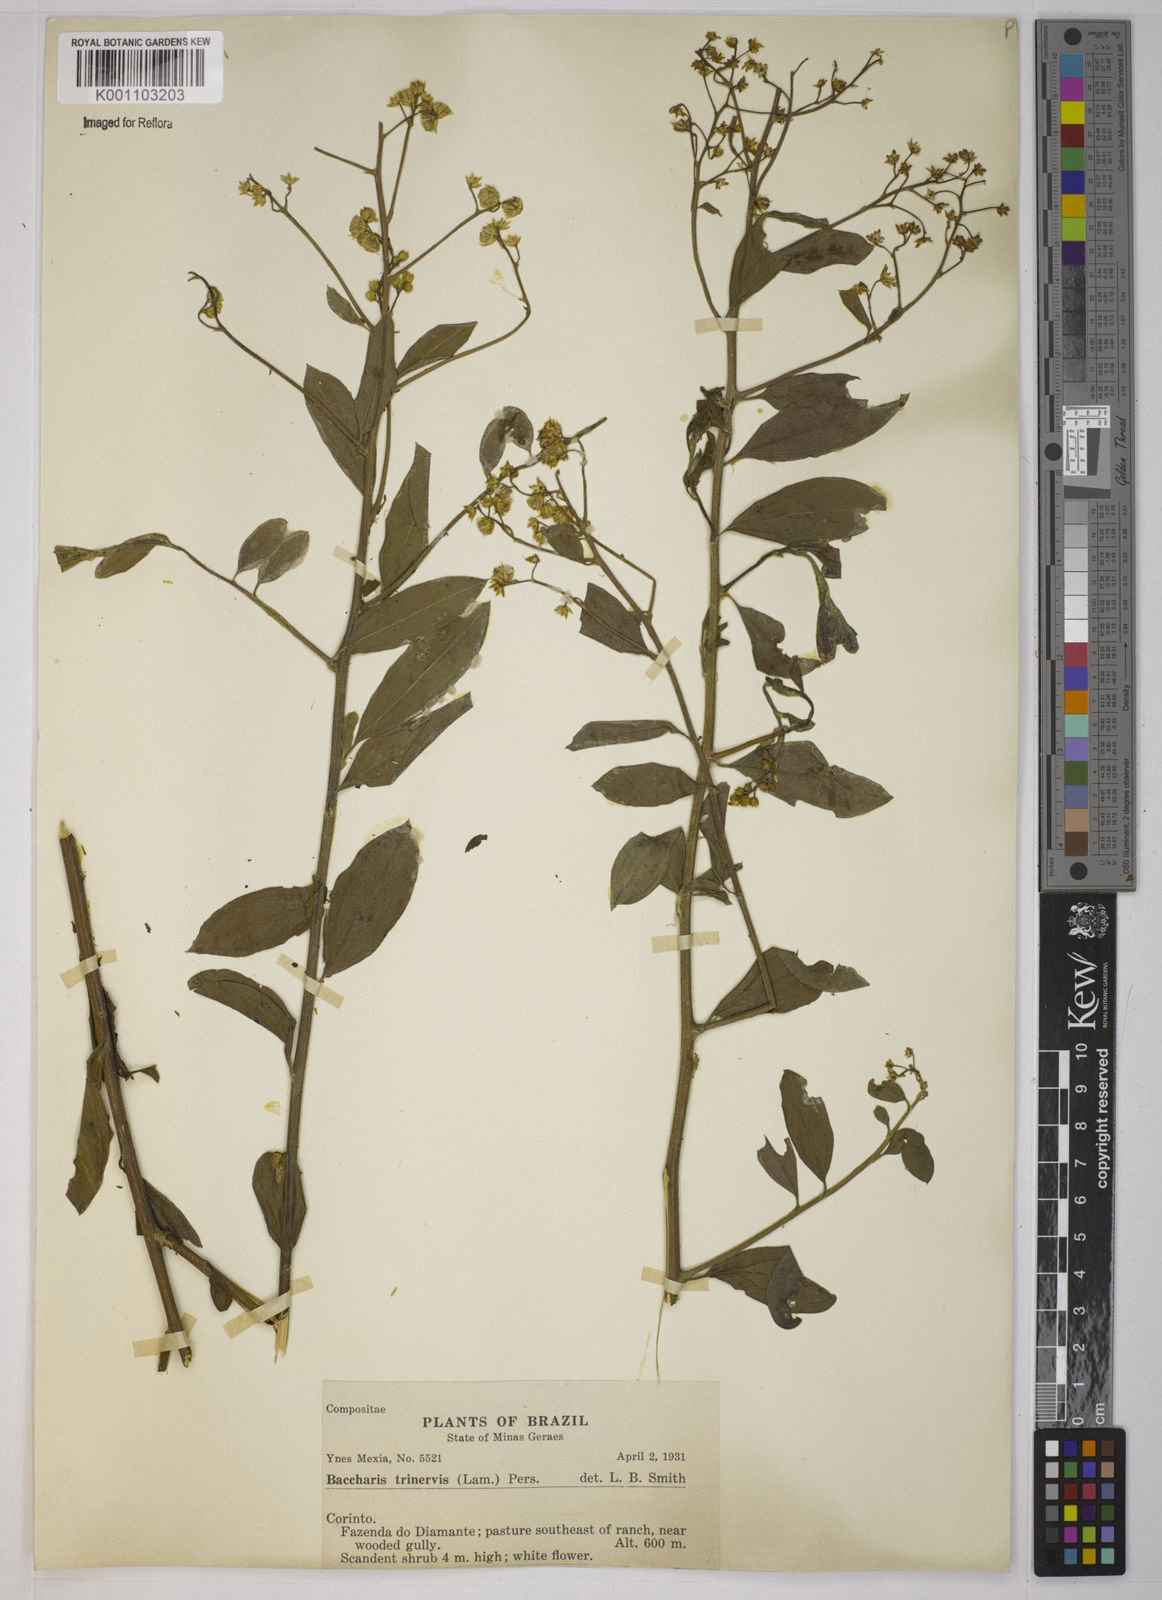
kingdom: Plantae
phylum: Tracheophyta
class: Magnoliopsida
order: Asterales
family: Asteraceae
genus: Baccharis
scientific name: Baccharis trinervis
